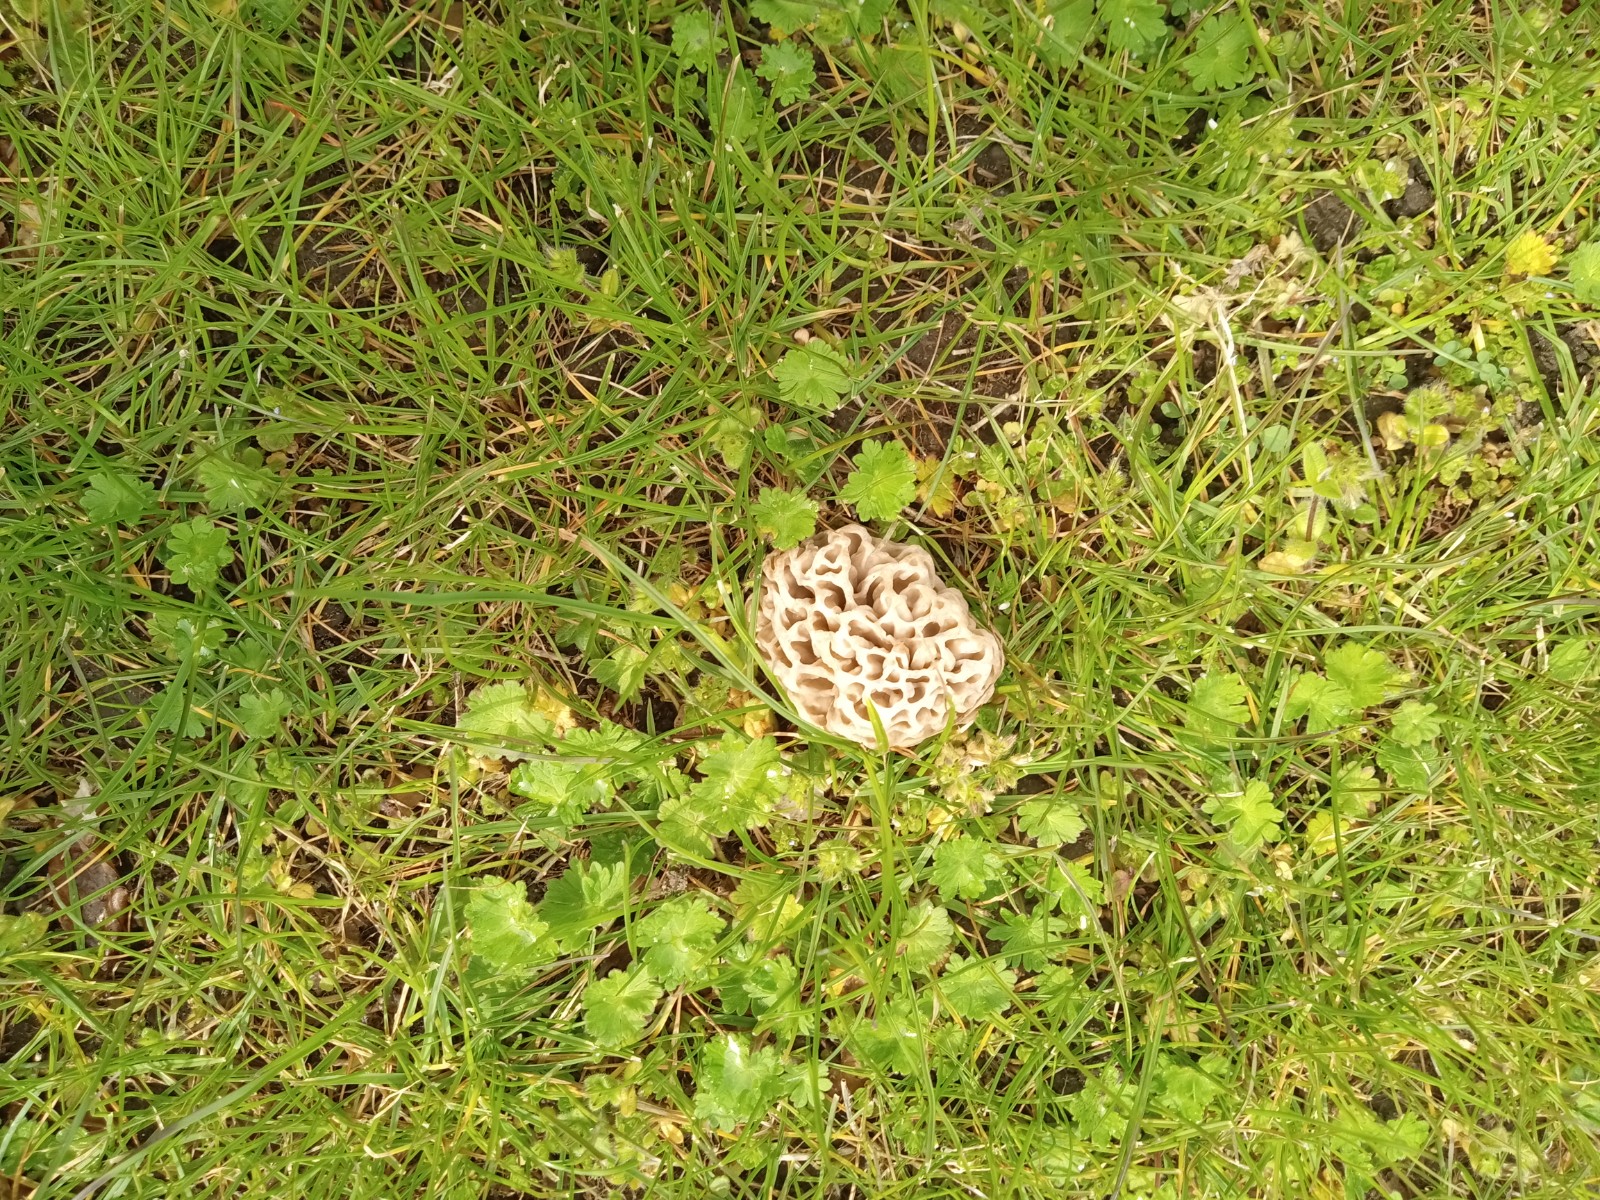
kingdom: Fungi
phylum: Ascomycota
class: Pezizomycetes
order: Pezizales
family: Morchellaceae
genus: Morchella
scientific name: Morchella esculenta
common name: almindelig morkel
